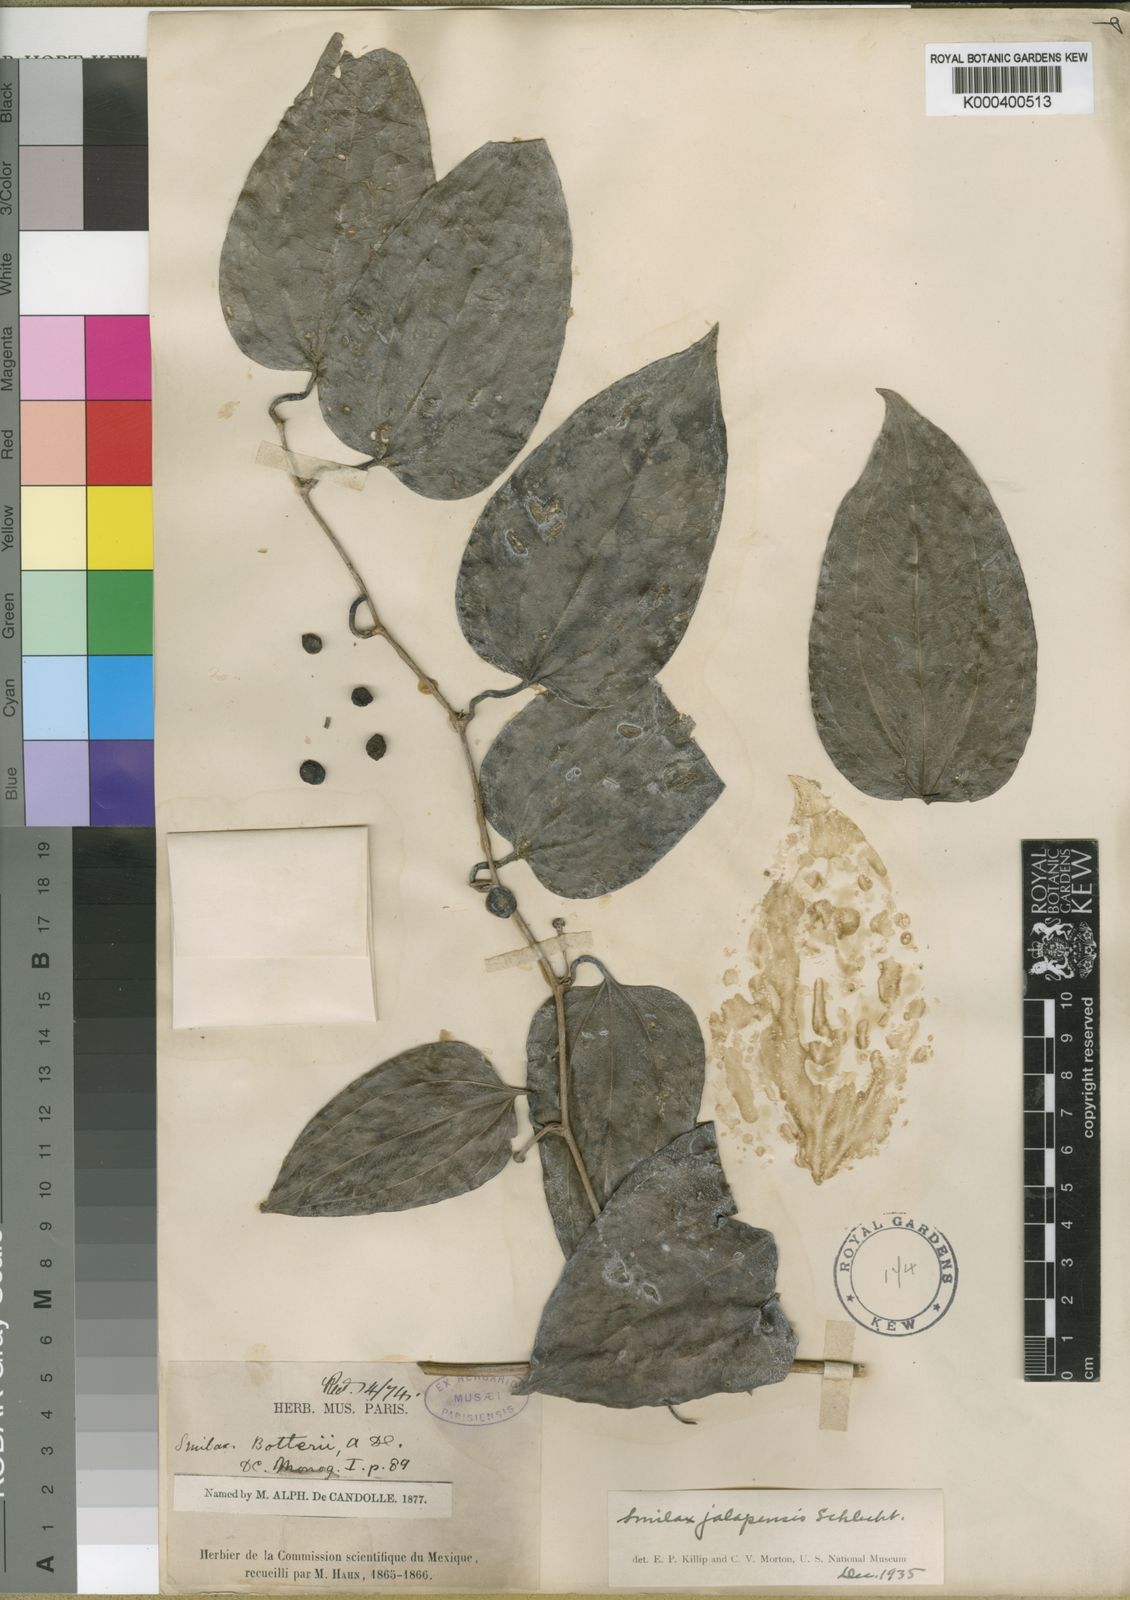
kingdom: Plantae
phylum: Tracheophyta
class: Liliopsida
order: Liliales
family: Smilacaceae
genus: Smilax
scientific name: Smilax moranensis
